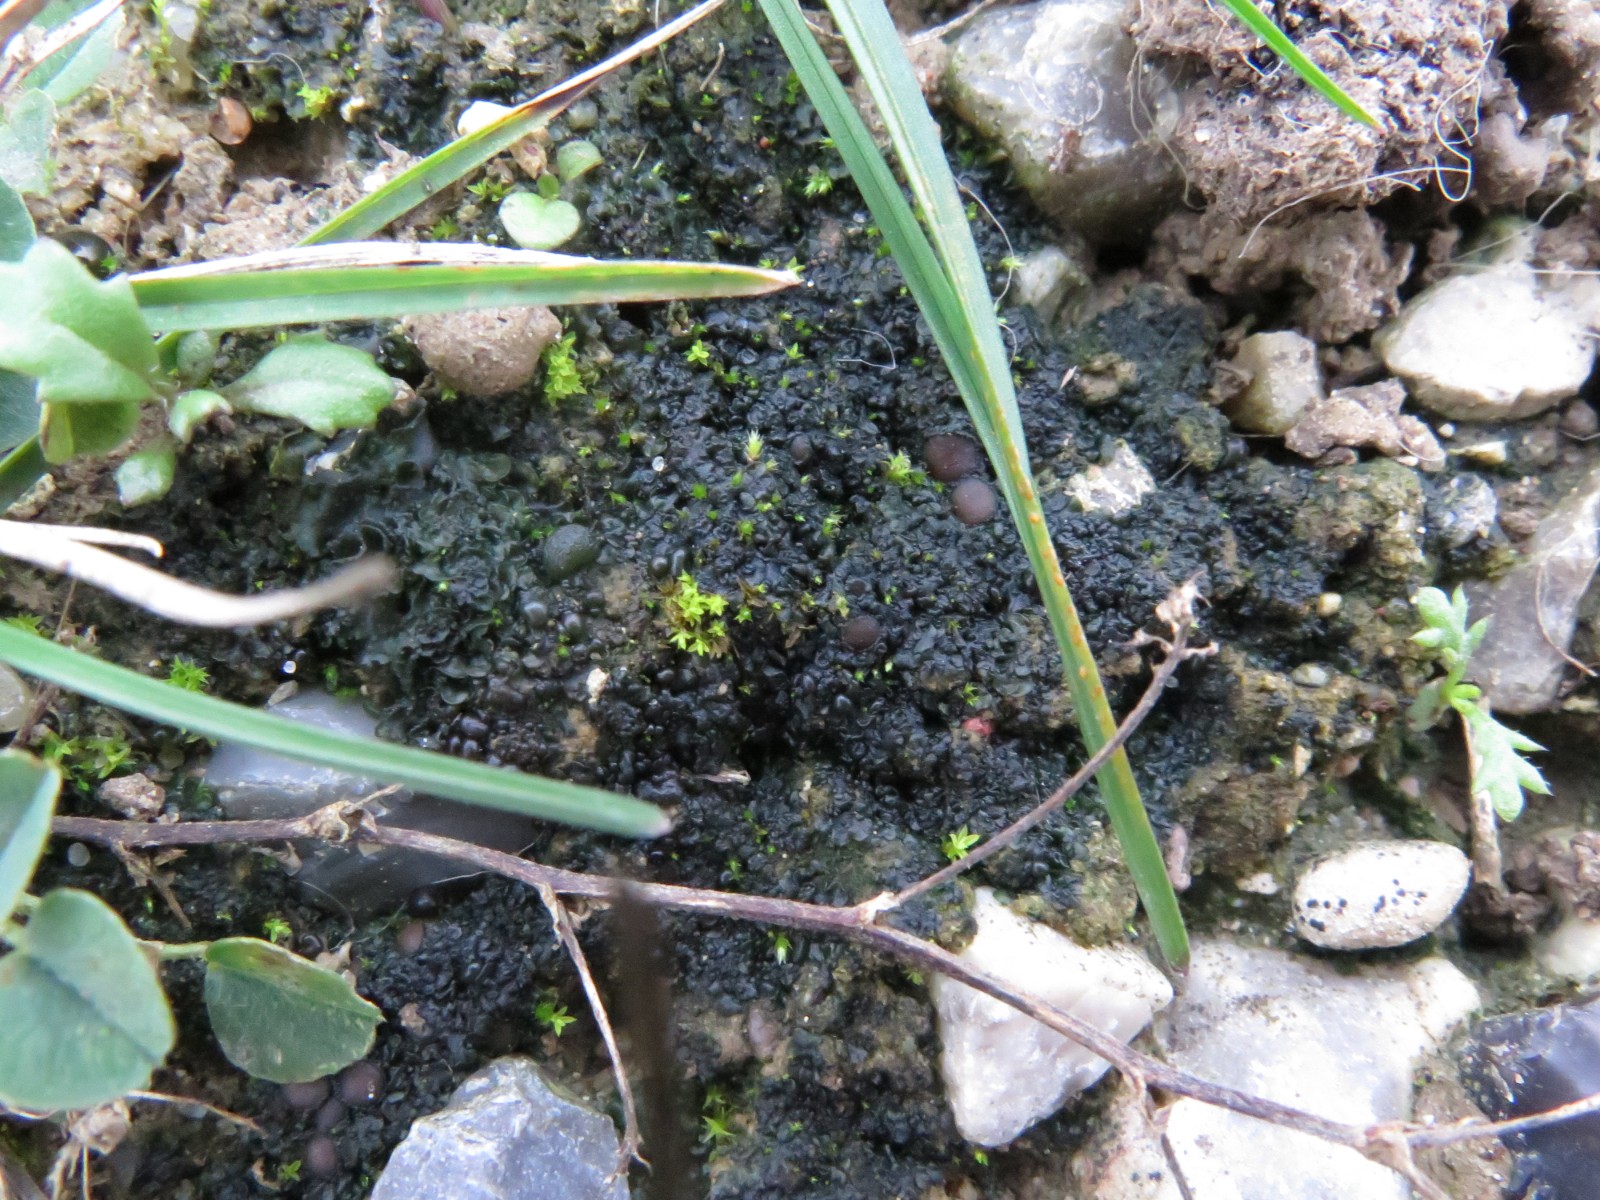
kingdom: Fungi
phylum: Ascomycota
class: Lecanoromycetes
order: Peltigerales
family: Collemataceae
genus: Enchylium
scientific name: Enchylium tenax
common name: tyk bævrelav
